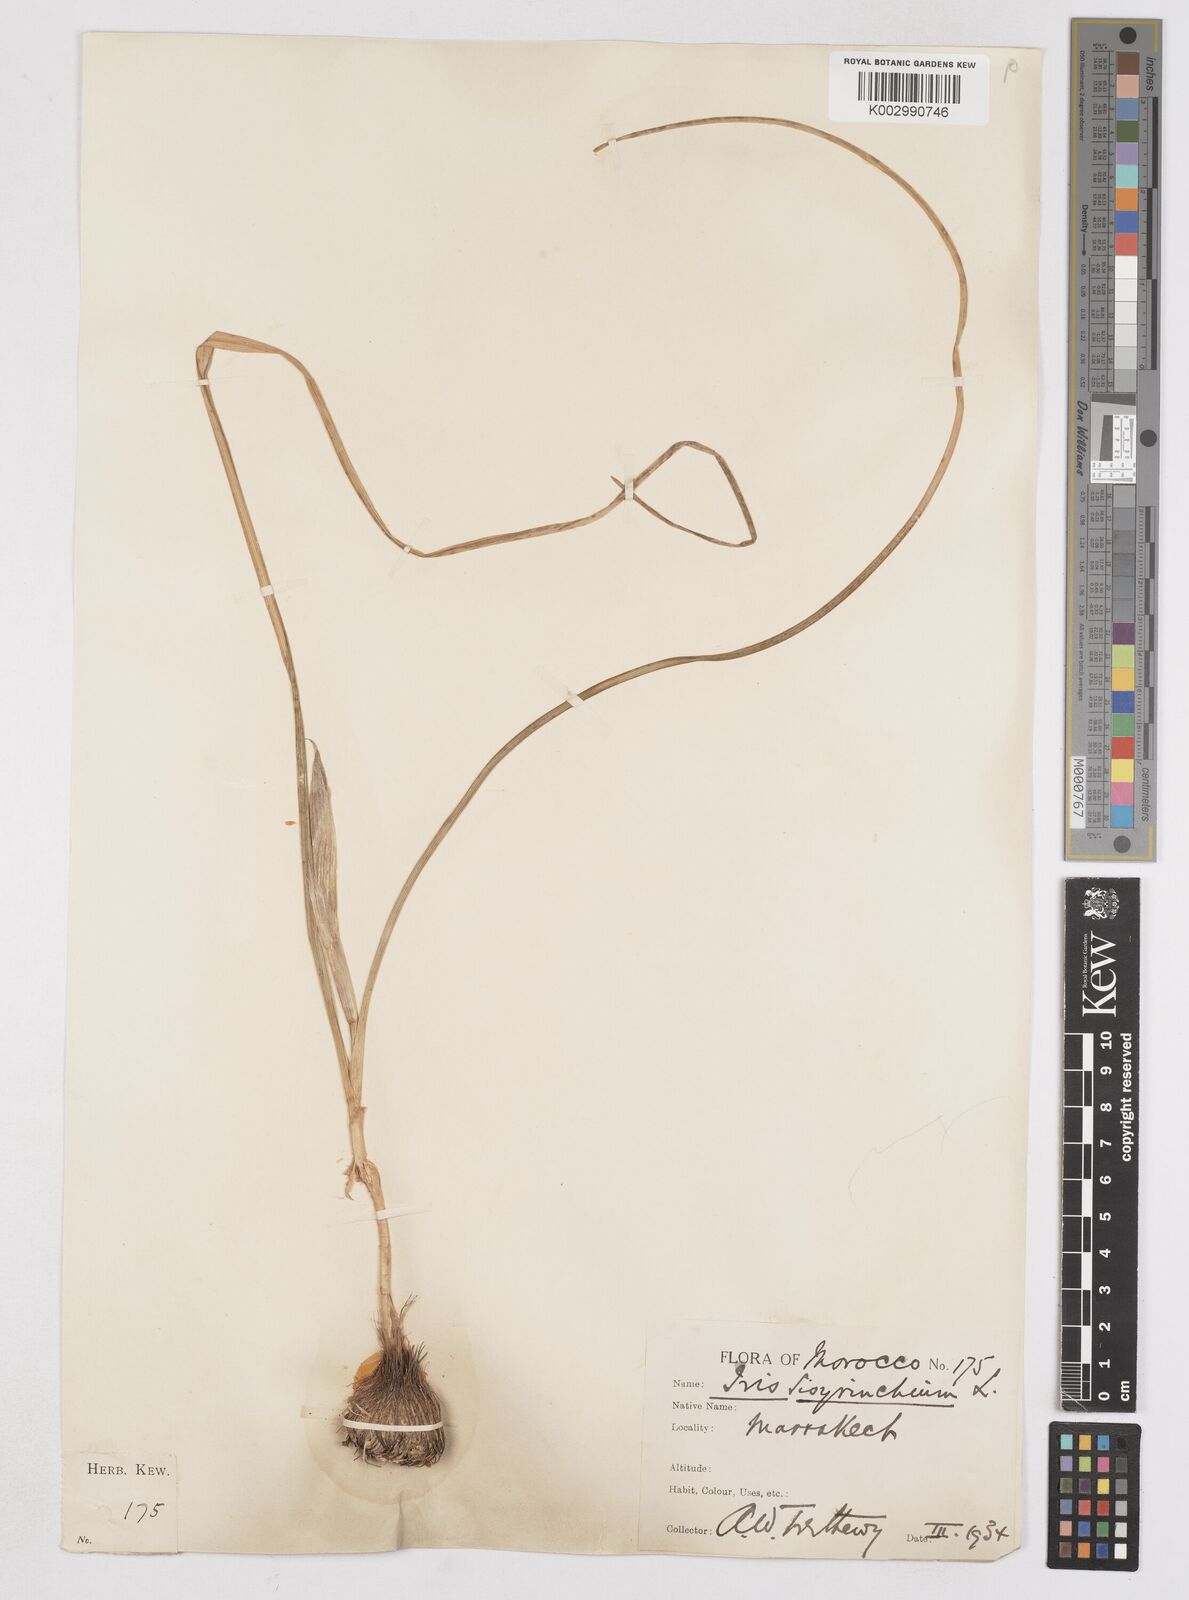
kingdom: Plantae
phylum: Tracheophyta
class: Liliopsida
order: Asparagales
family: Iridaceae
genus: Moraea
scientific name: Moraea sisyrinchium
